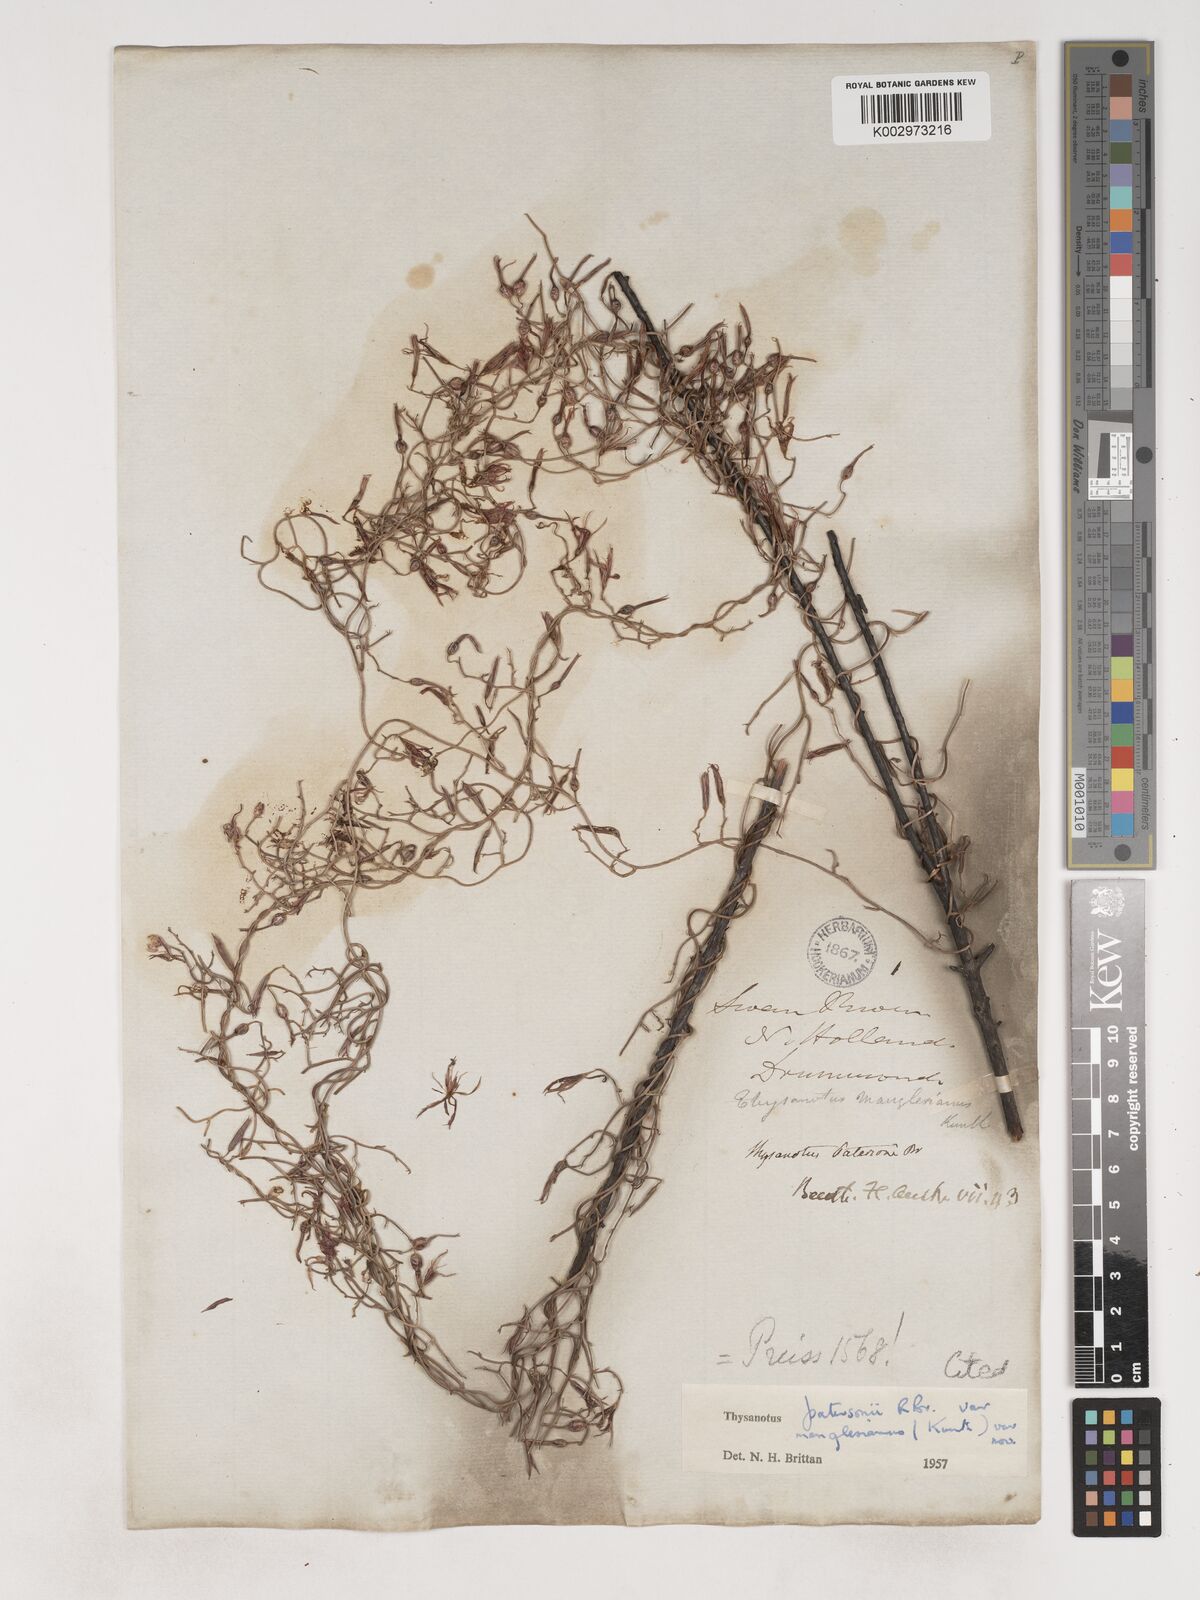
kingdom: Plantae
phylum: Tracheophyta
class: Liliopsida
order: Asparagales
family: Asparagaceae
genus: Thysanotus
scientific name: Thysanotus manglesianus
